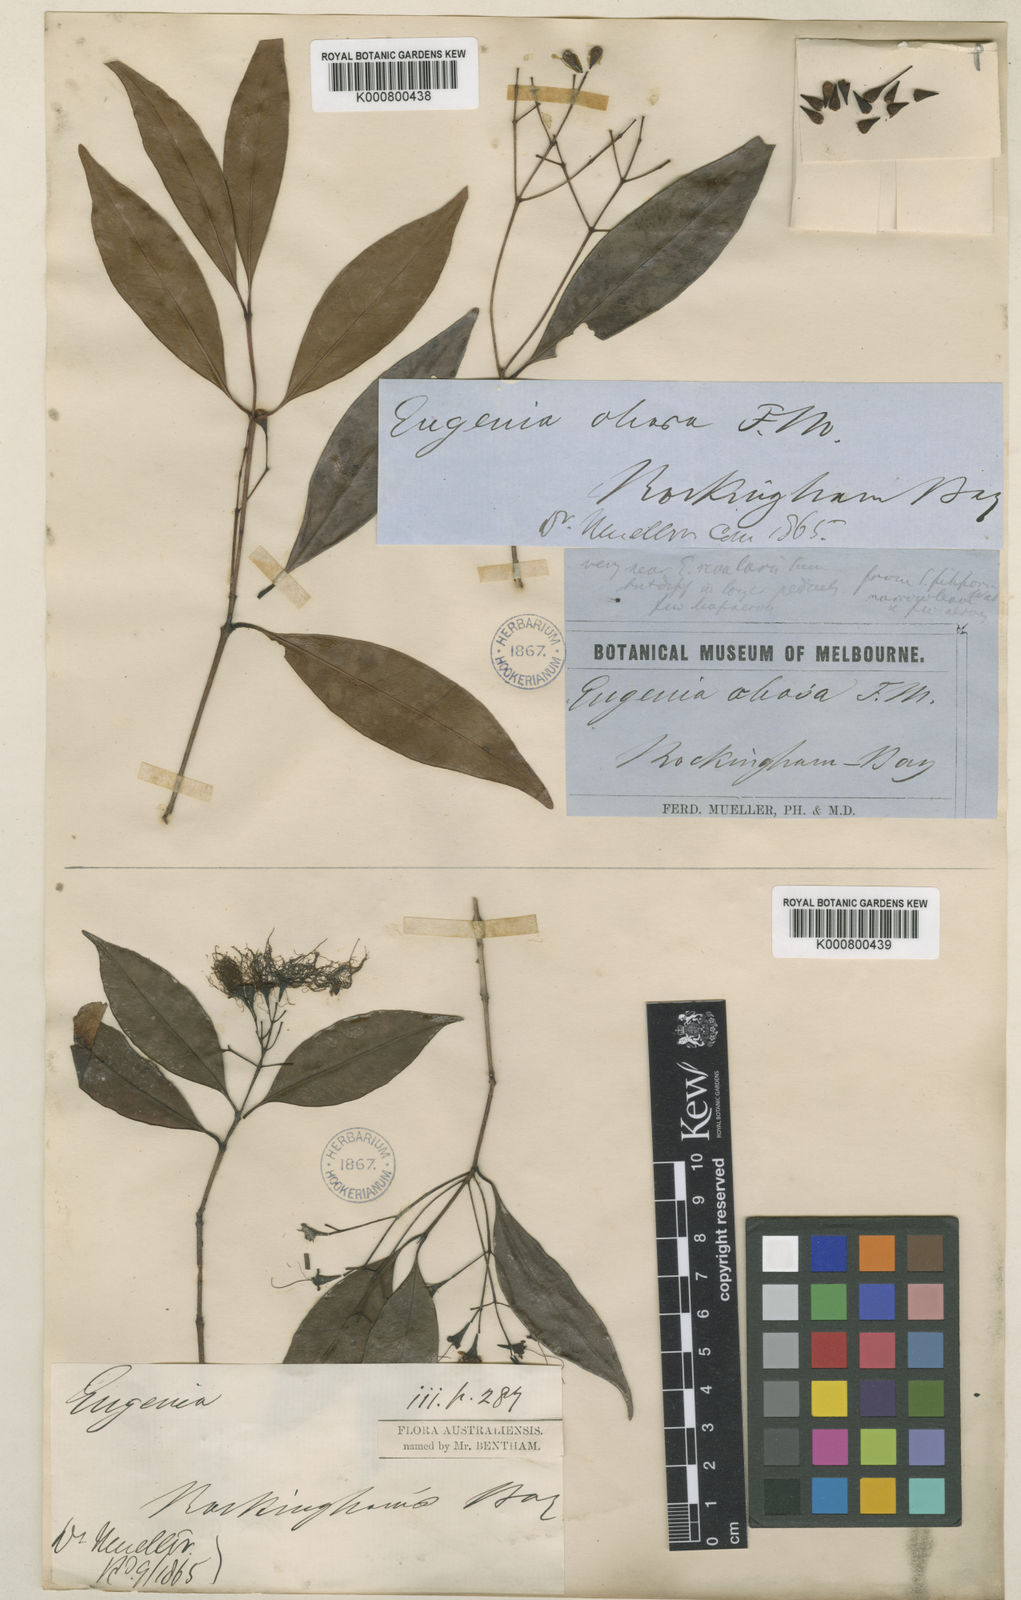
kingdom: Plantae
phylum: Tracheophyta
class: Magnoliopsida
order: Myrtales
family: Myrtaceae
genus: Syzygium
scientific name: Syzygium oleosum
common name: Oily satin-ash
